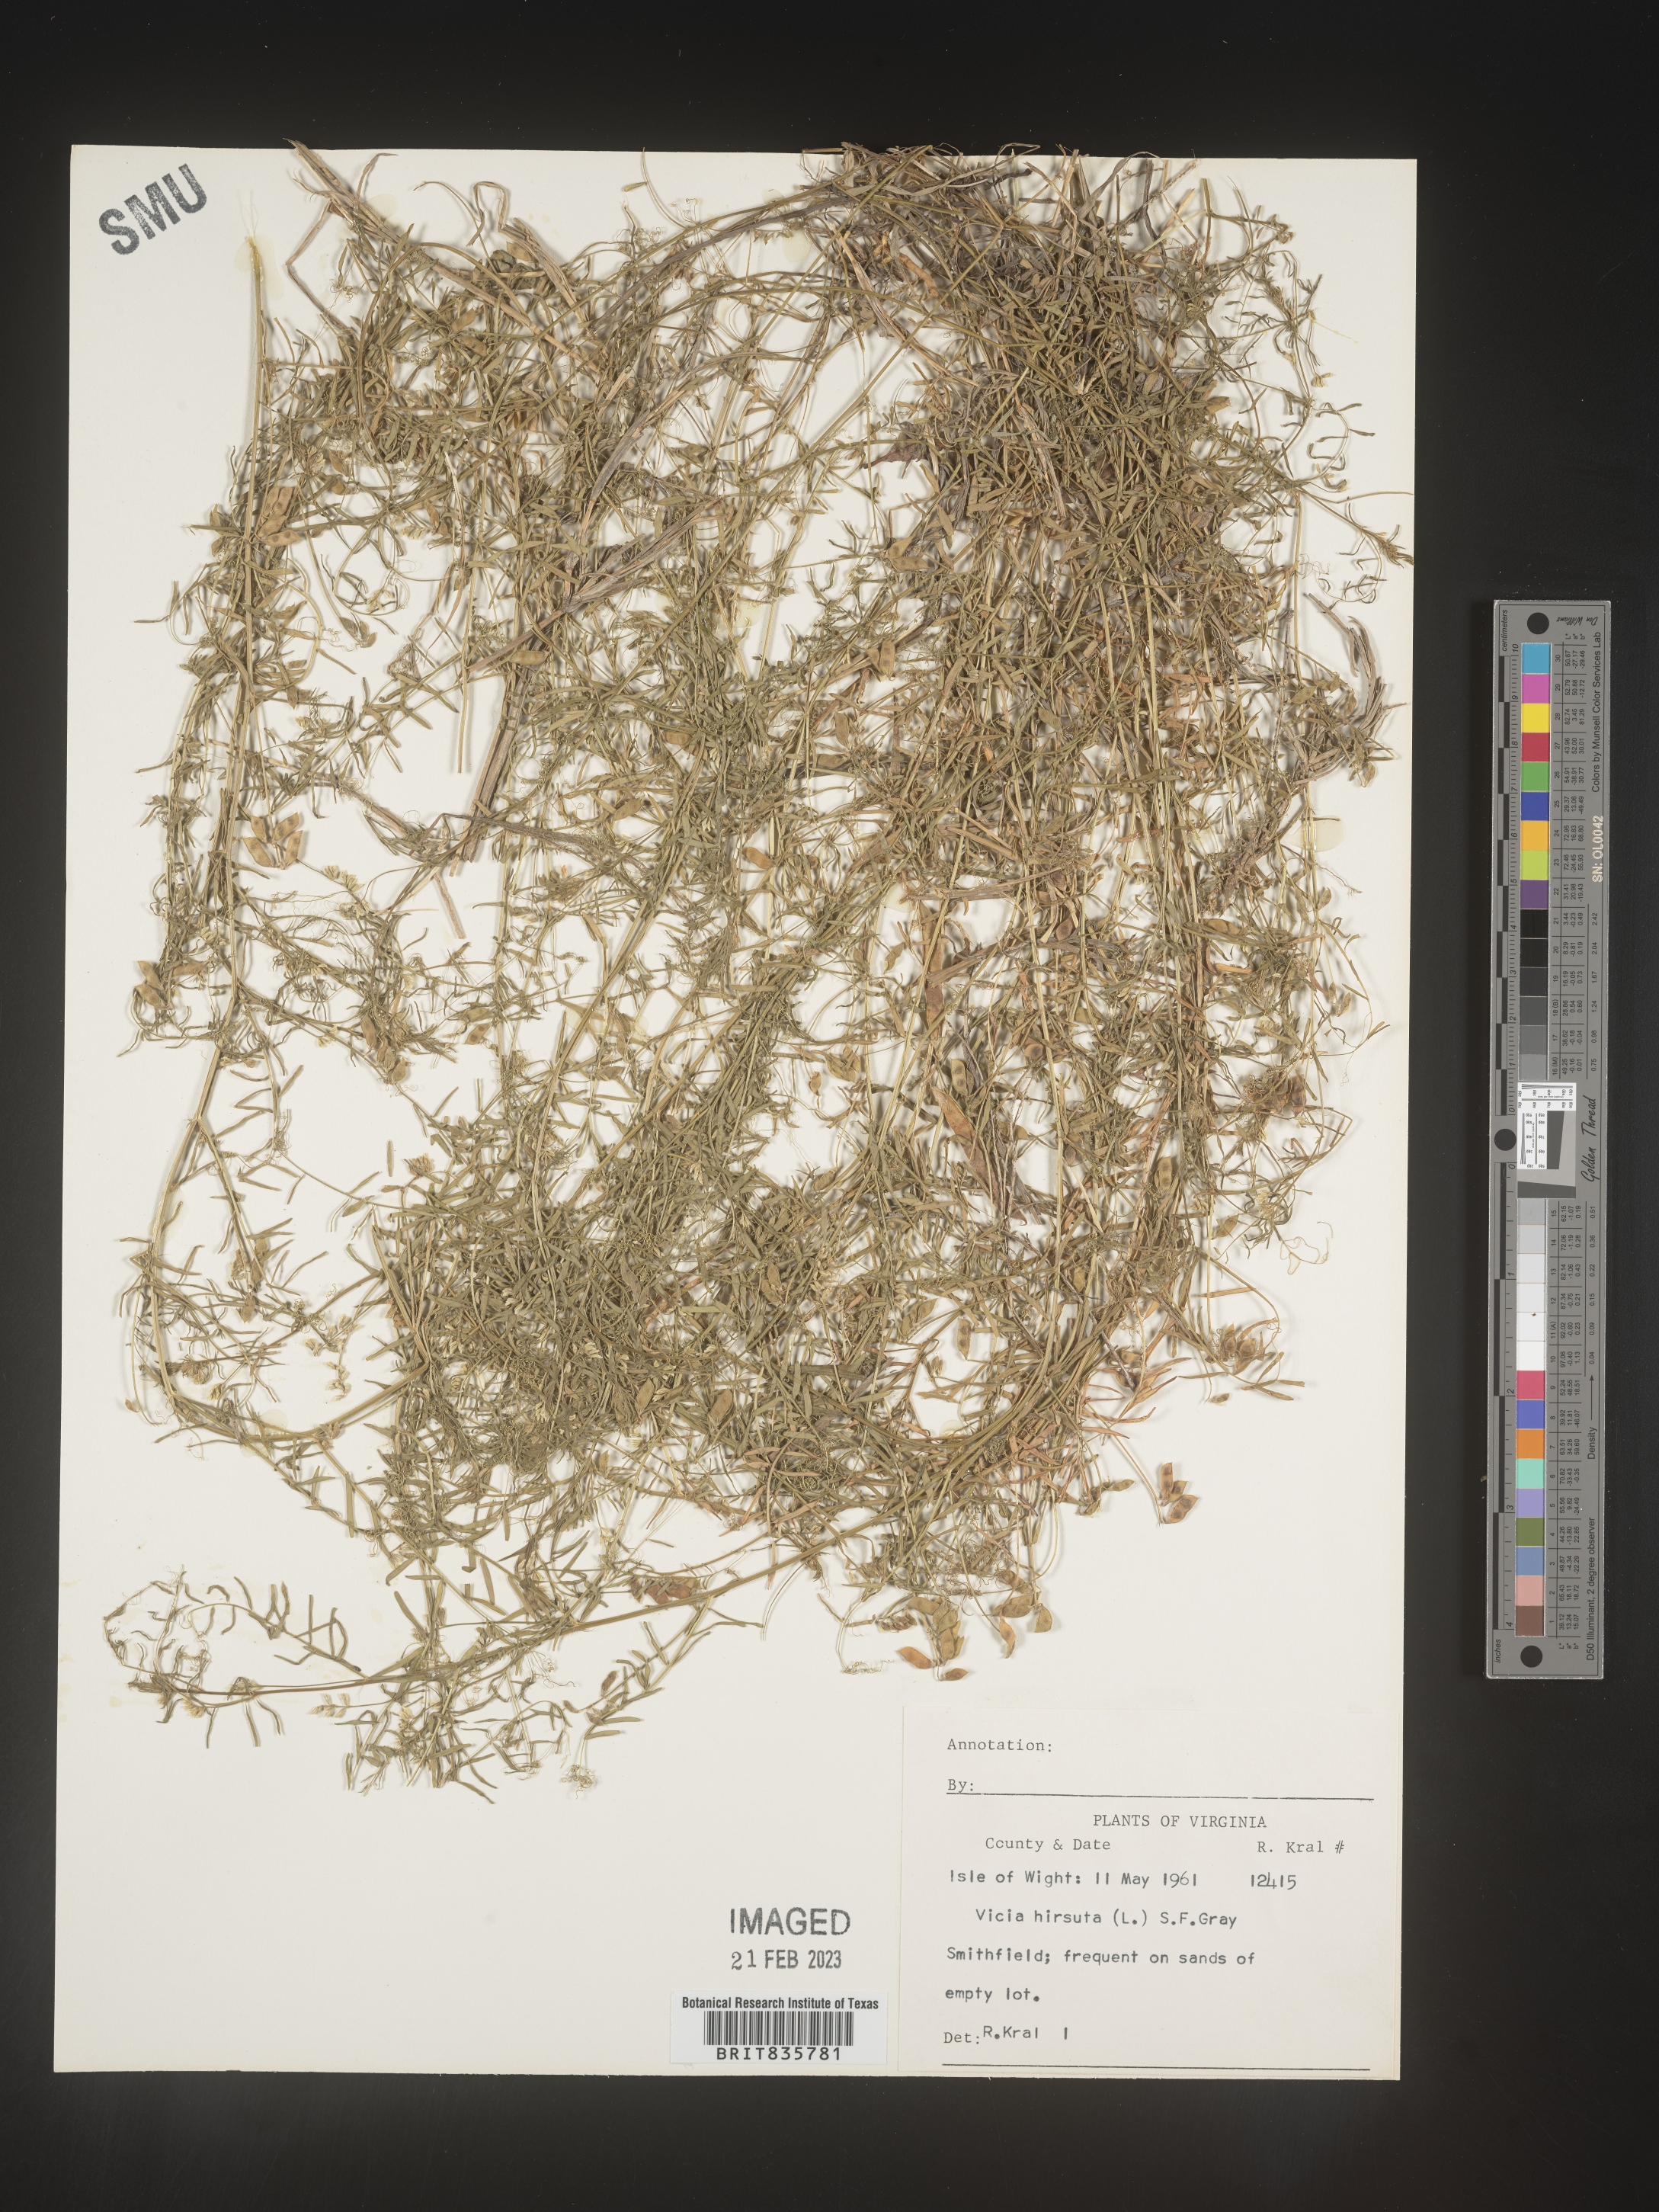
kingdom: Plantae
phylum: Tracheophyta
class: Magnoliopsida
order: Fabales
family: Fabaceae
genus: Vicia
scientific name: Vicia
